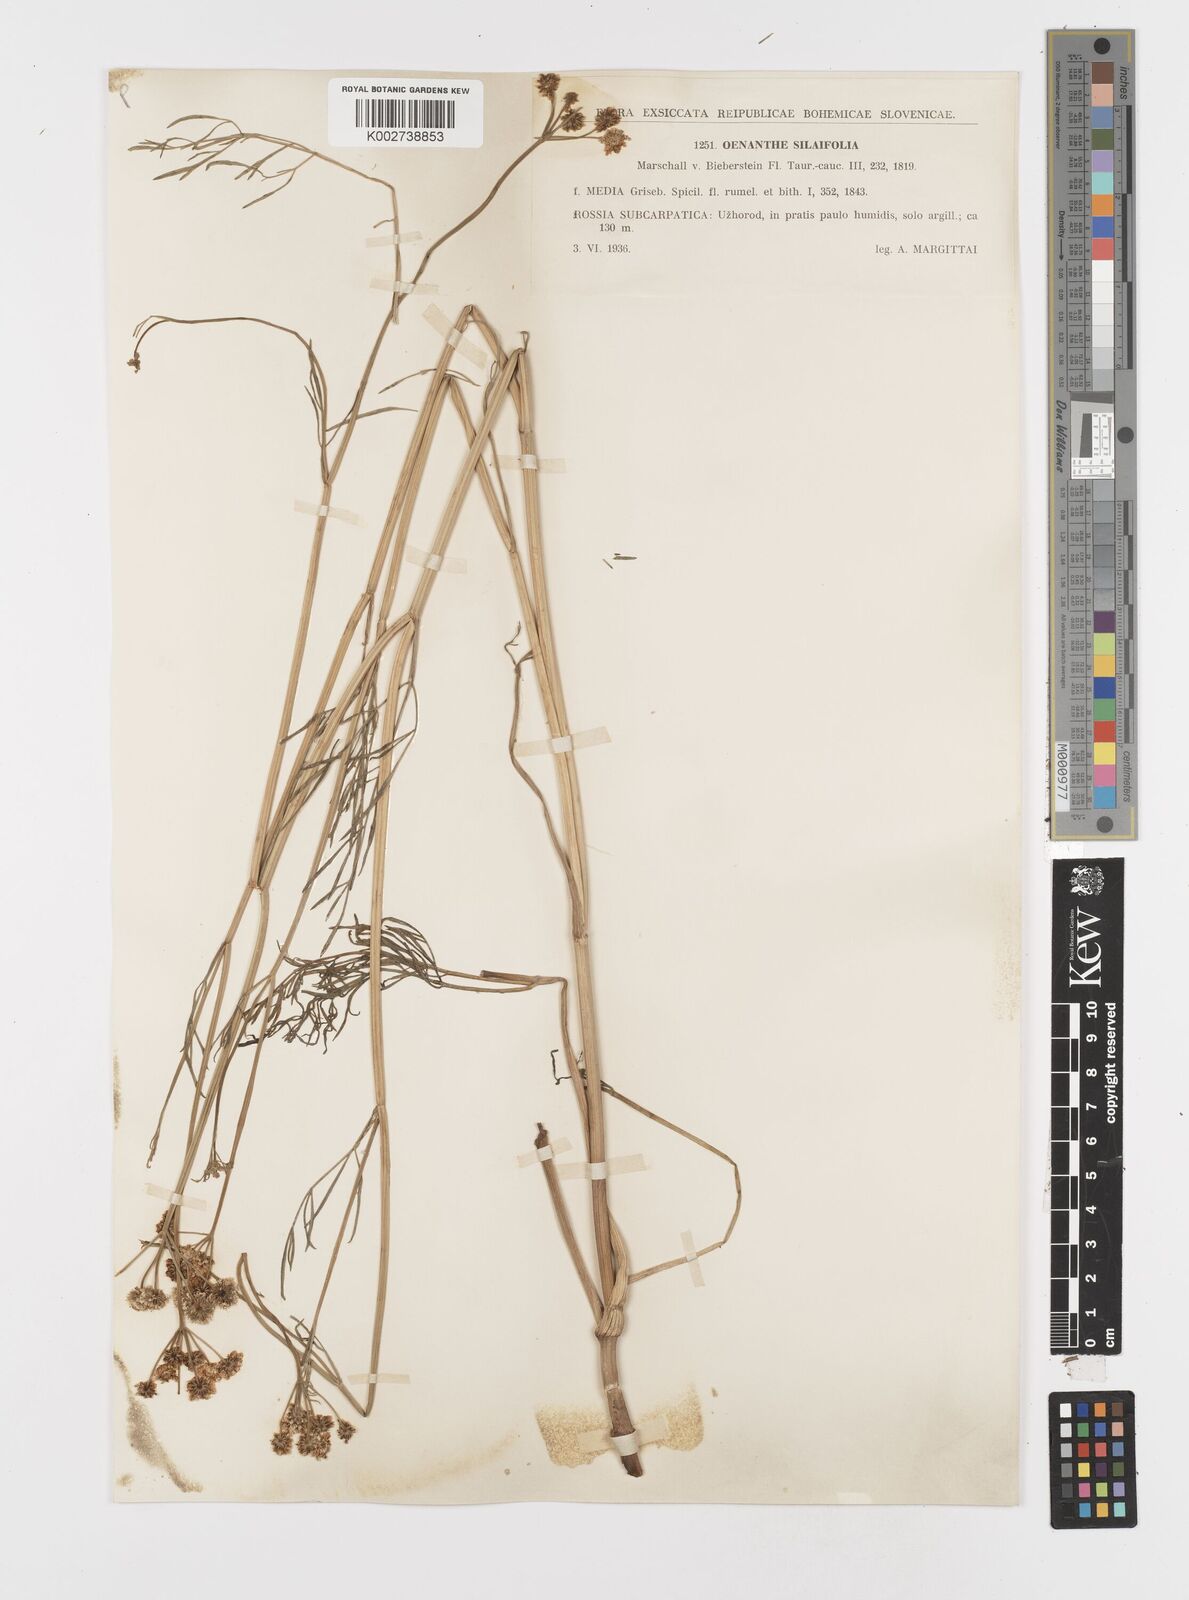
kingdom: Plantae
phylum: Tracheophyta
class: Magnoliopsida
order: Apiales
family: Apiaceae
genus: Oenanthe
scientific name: Oenanthe silaifolia
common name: Narrow-leaved water-dropwort
